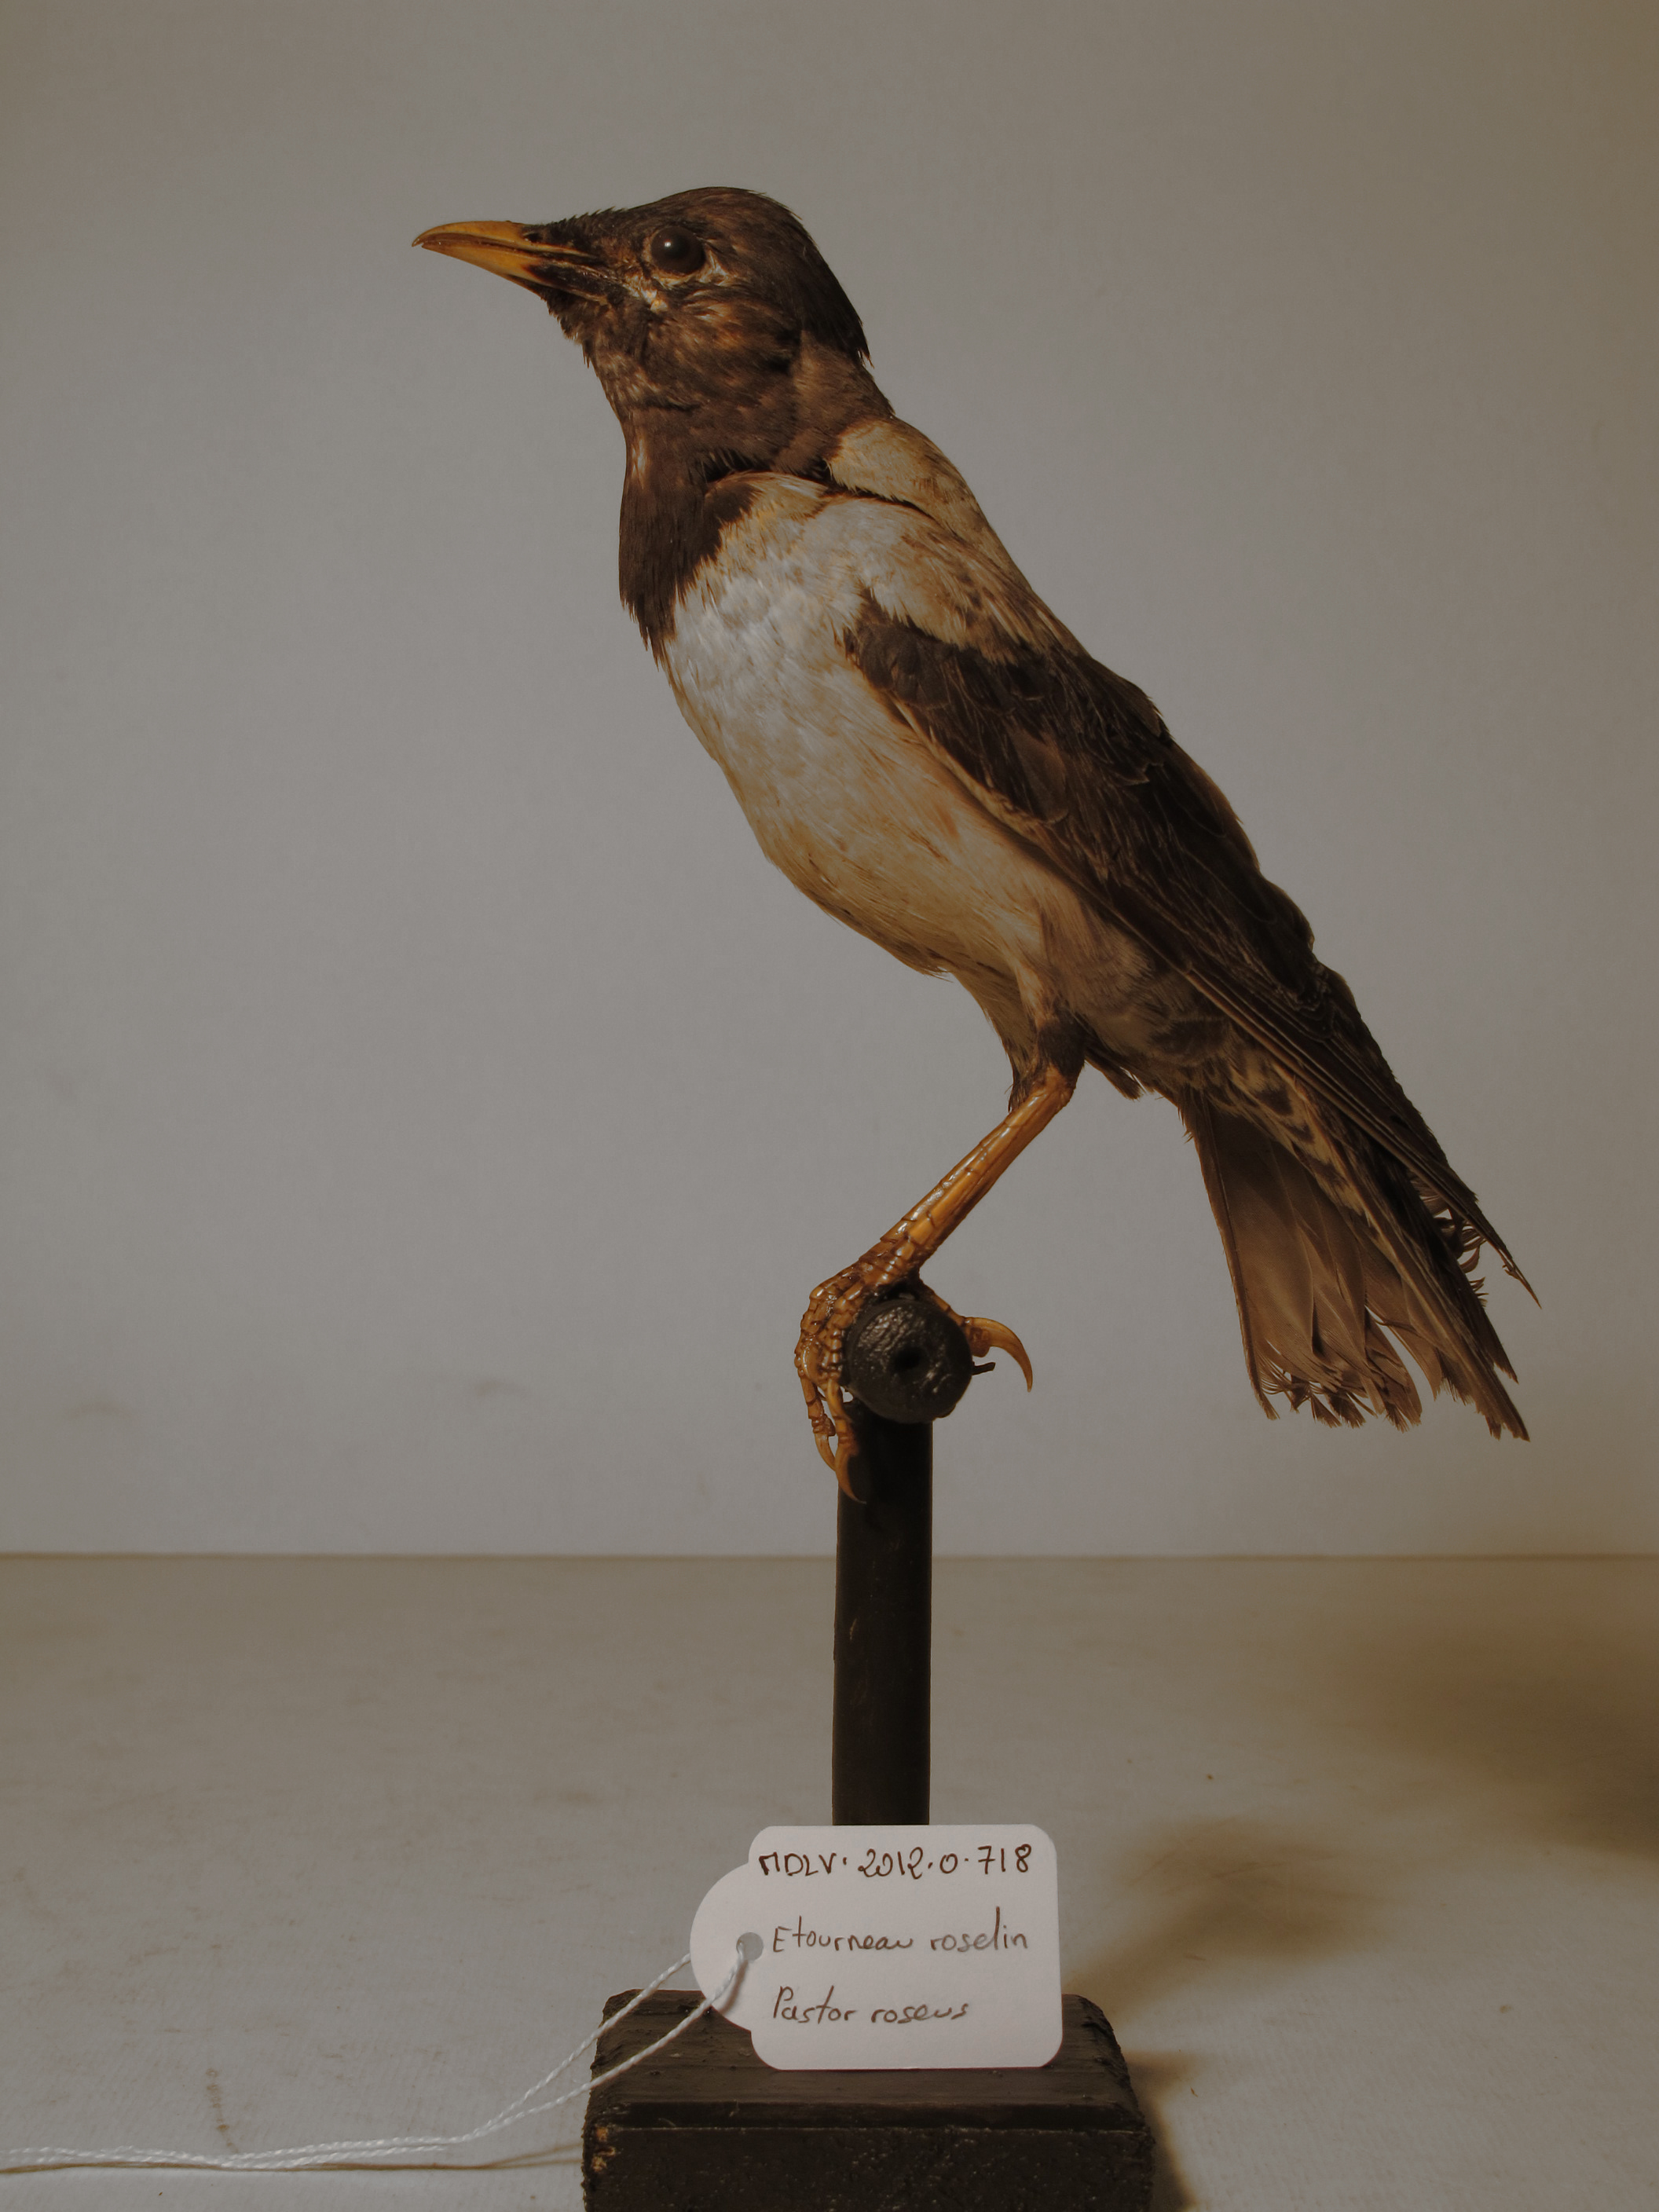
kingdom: Animalia
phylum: Chordata
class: Aves
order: Passeriformes
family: Sturnidae
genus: Pastor
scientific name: Pastor roseus
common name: Rose-coloured Starling
